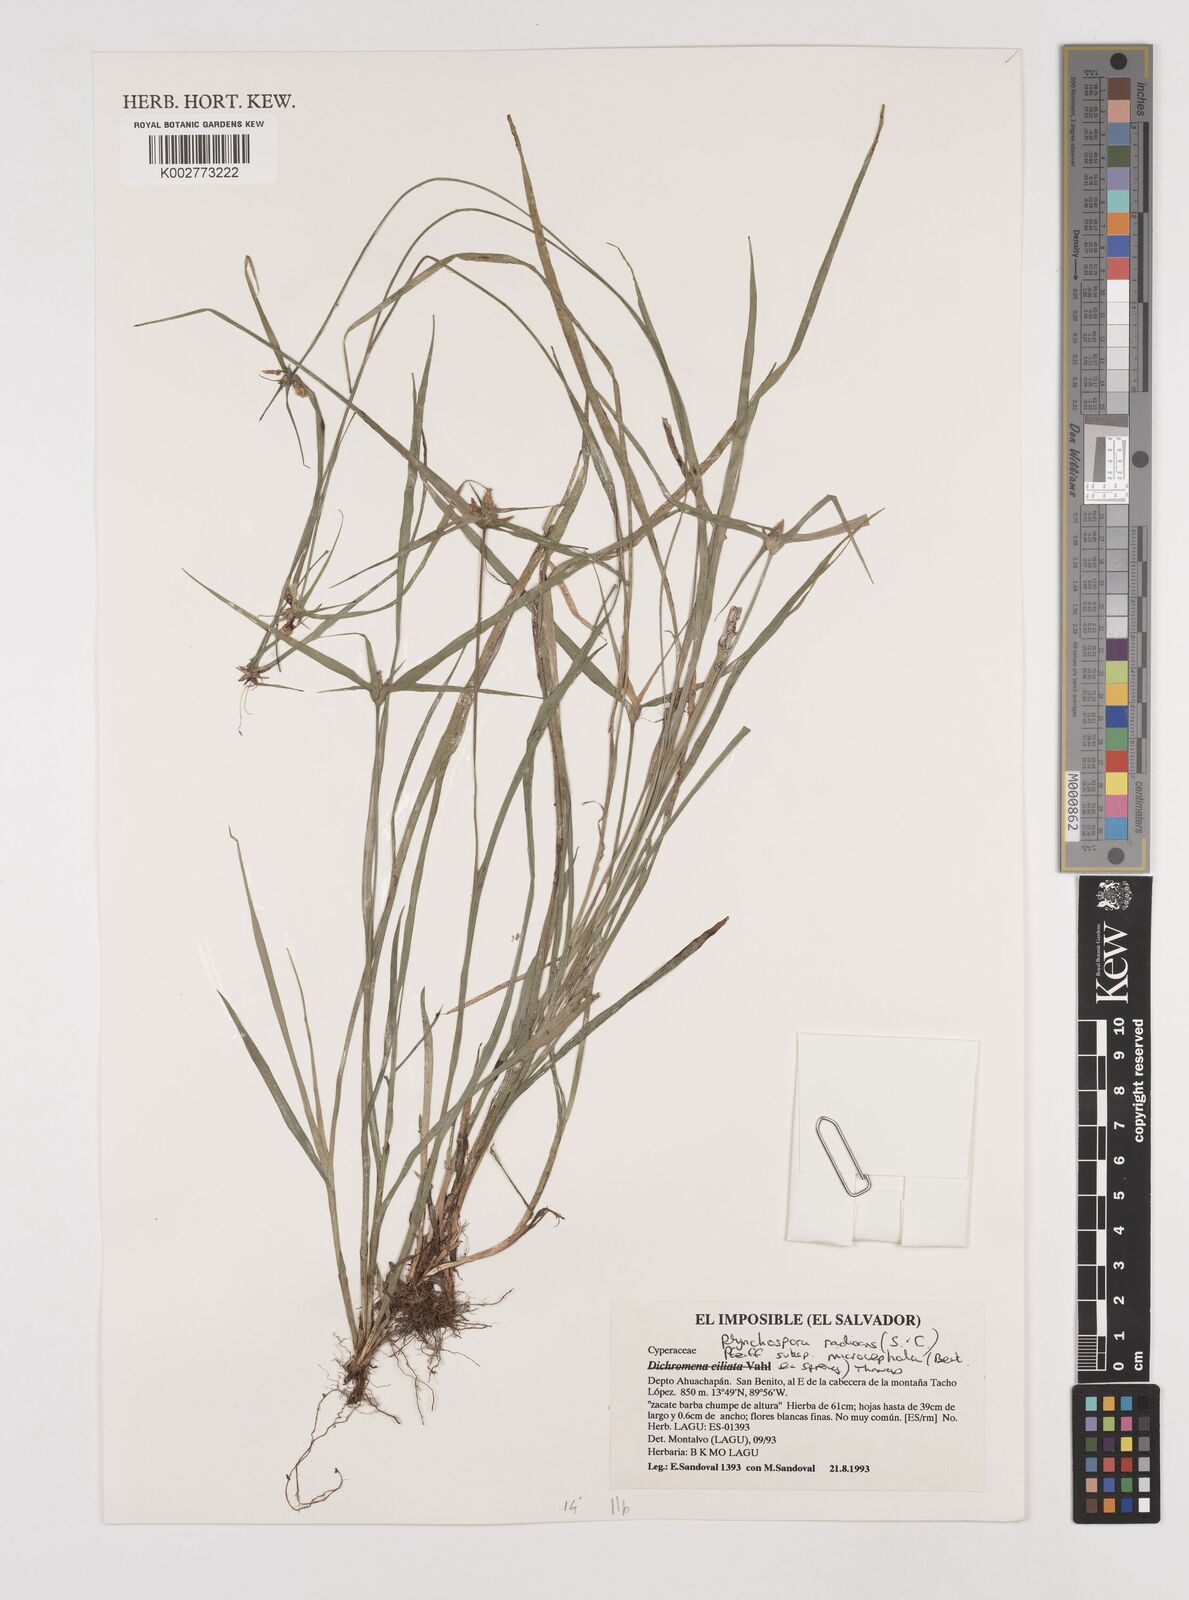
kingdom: Plantae
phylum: Tracheophyta
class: Liliopsida
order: Poales
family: Cyperaceae
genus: Rhynchospora
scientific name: Rhynchospora radicans
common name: Tropical whitetop
